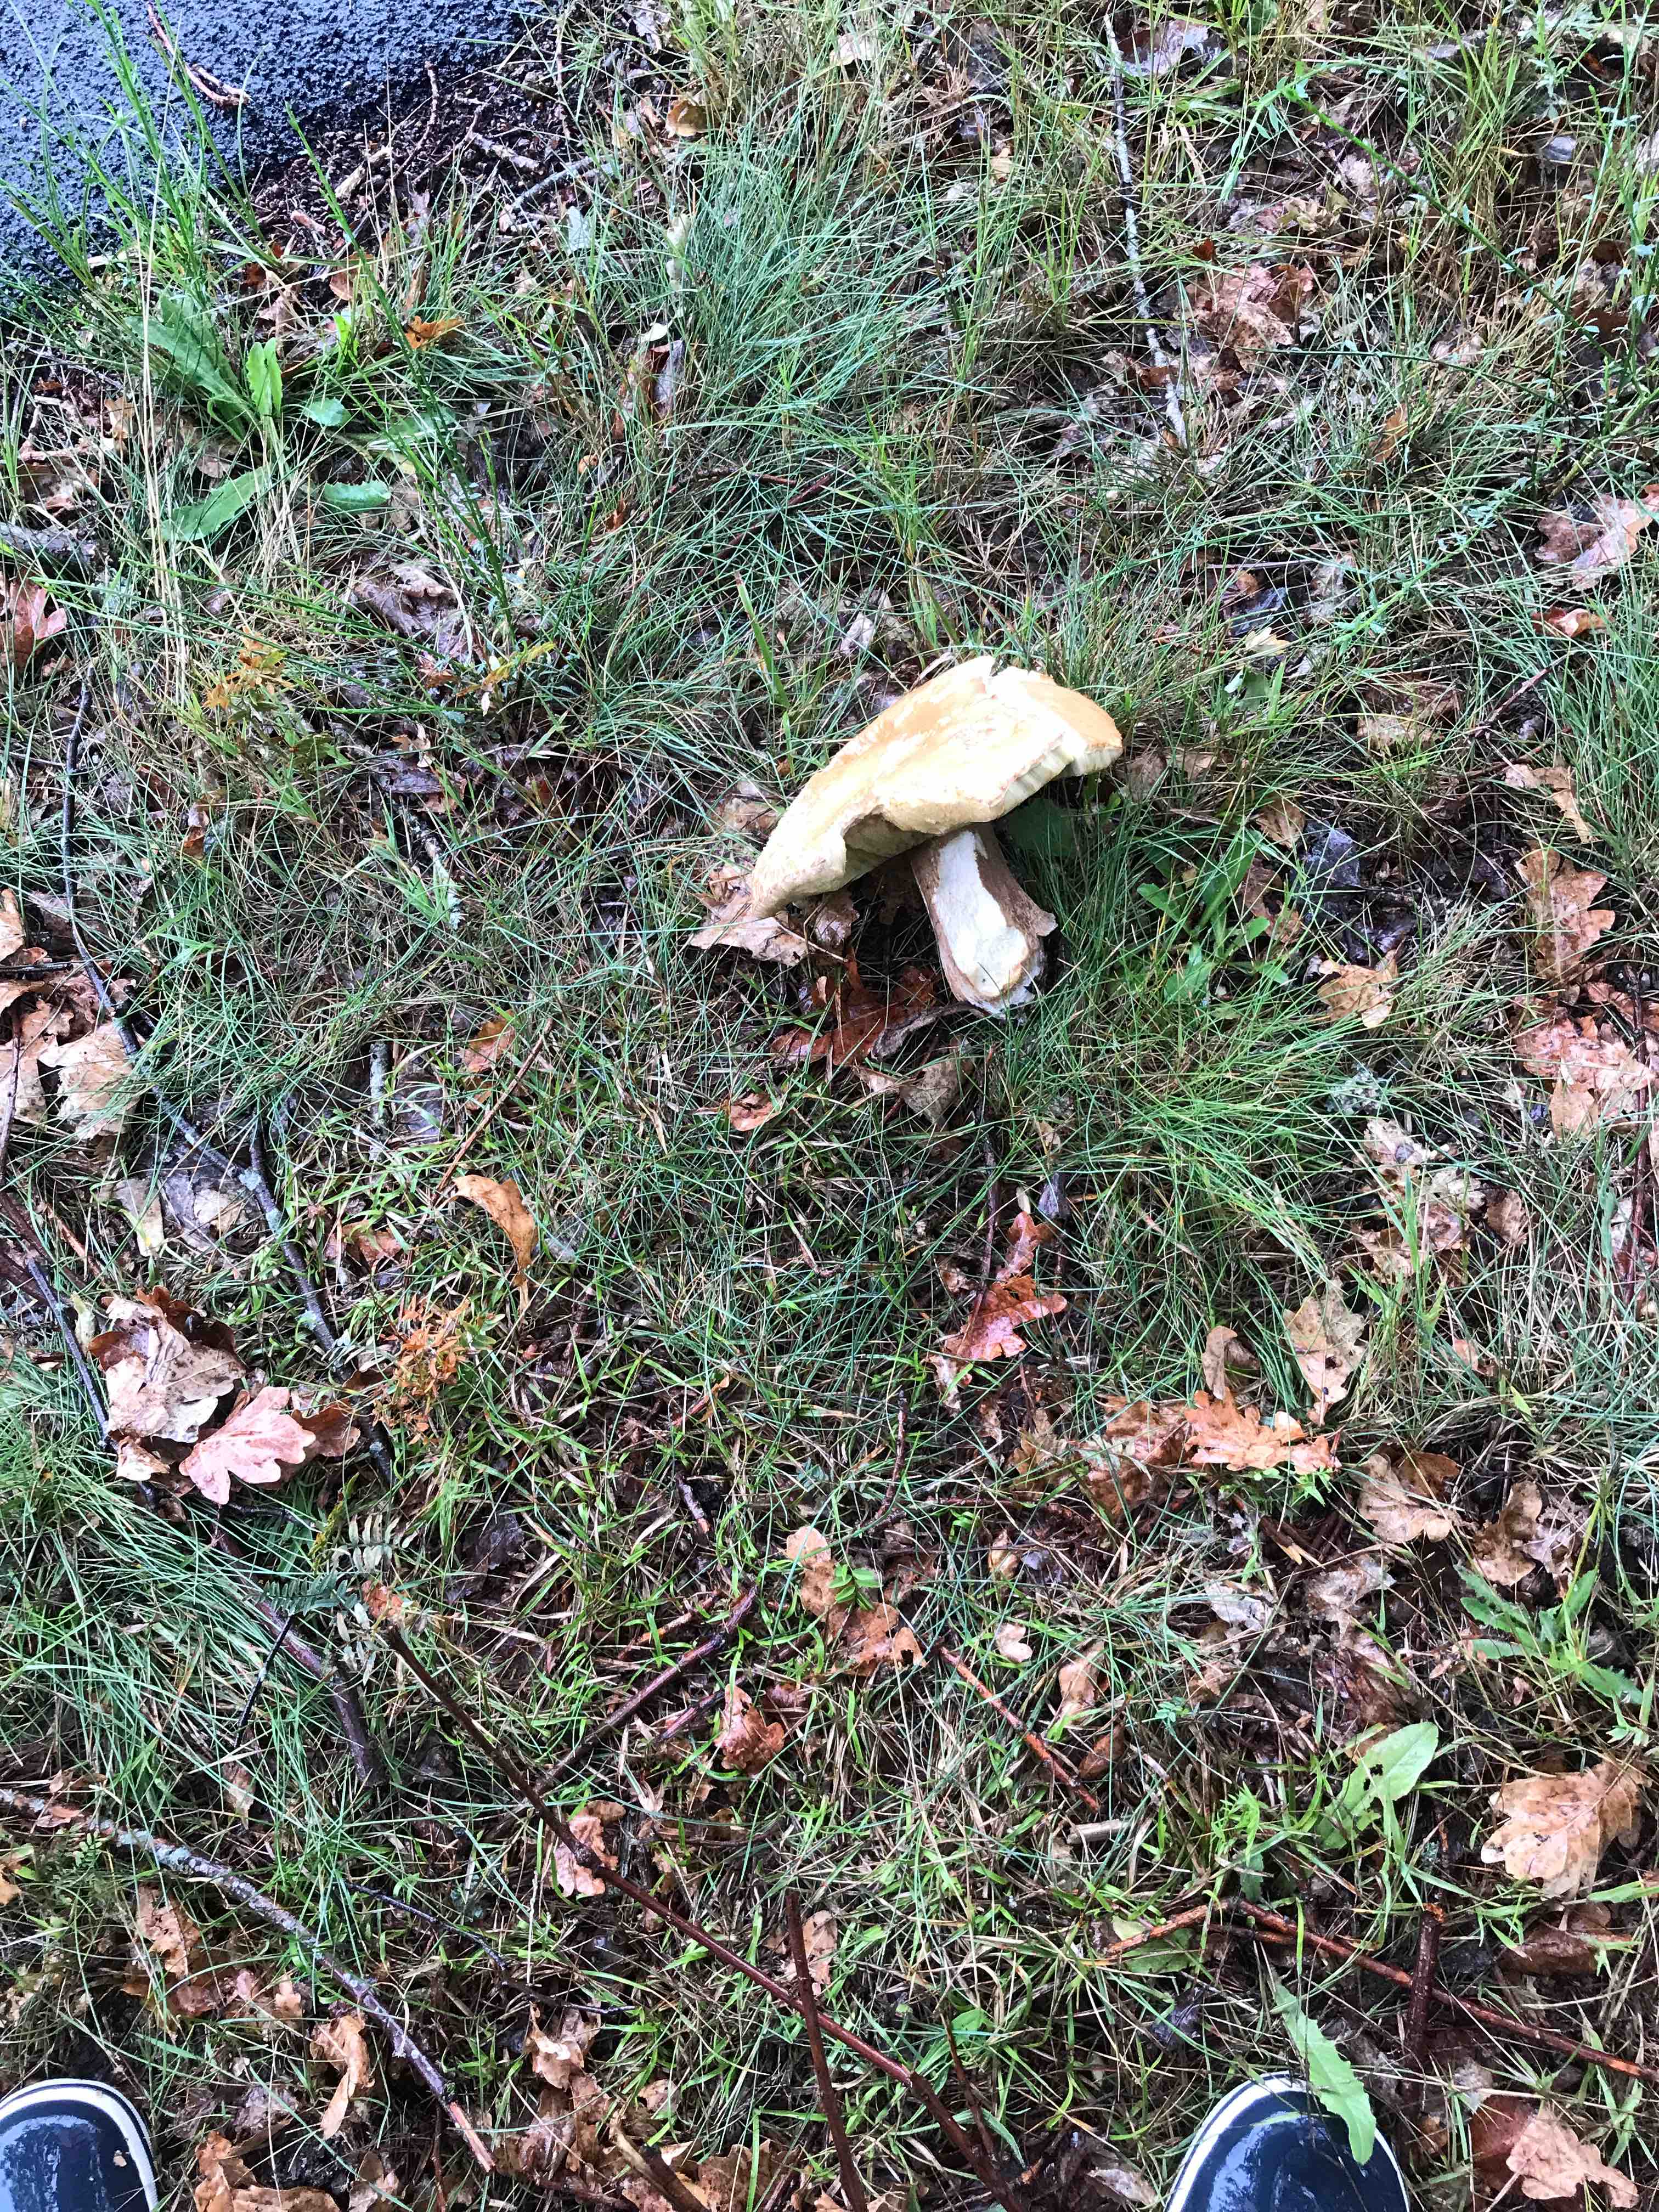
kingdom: Fungi
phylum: Basidiomycota
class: Agaricomycetes
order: Russulales
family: Russulaceae
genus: Russula
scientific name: Russula
